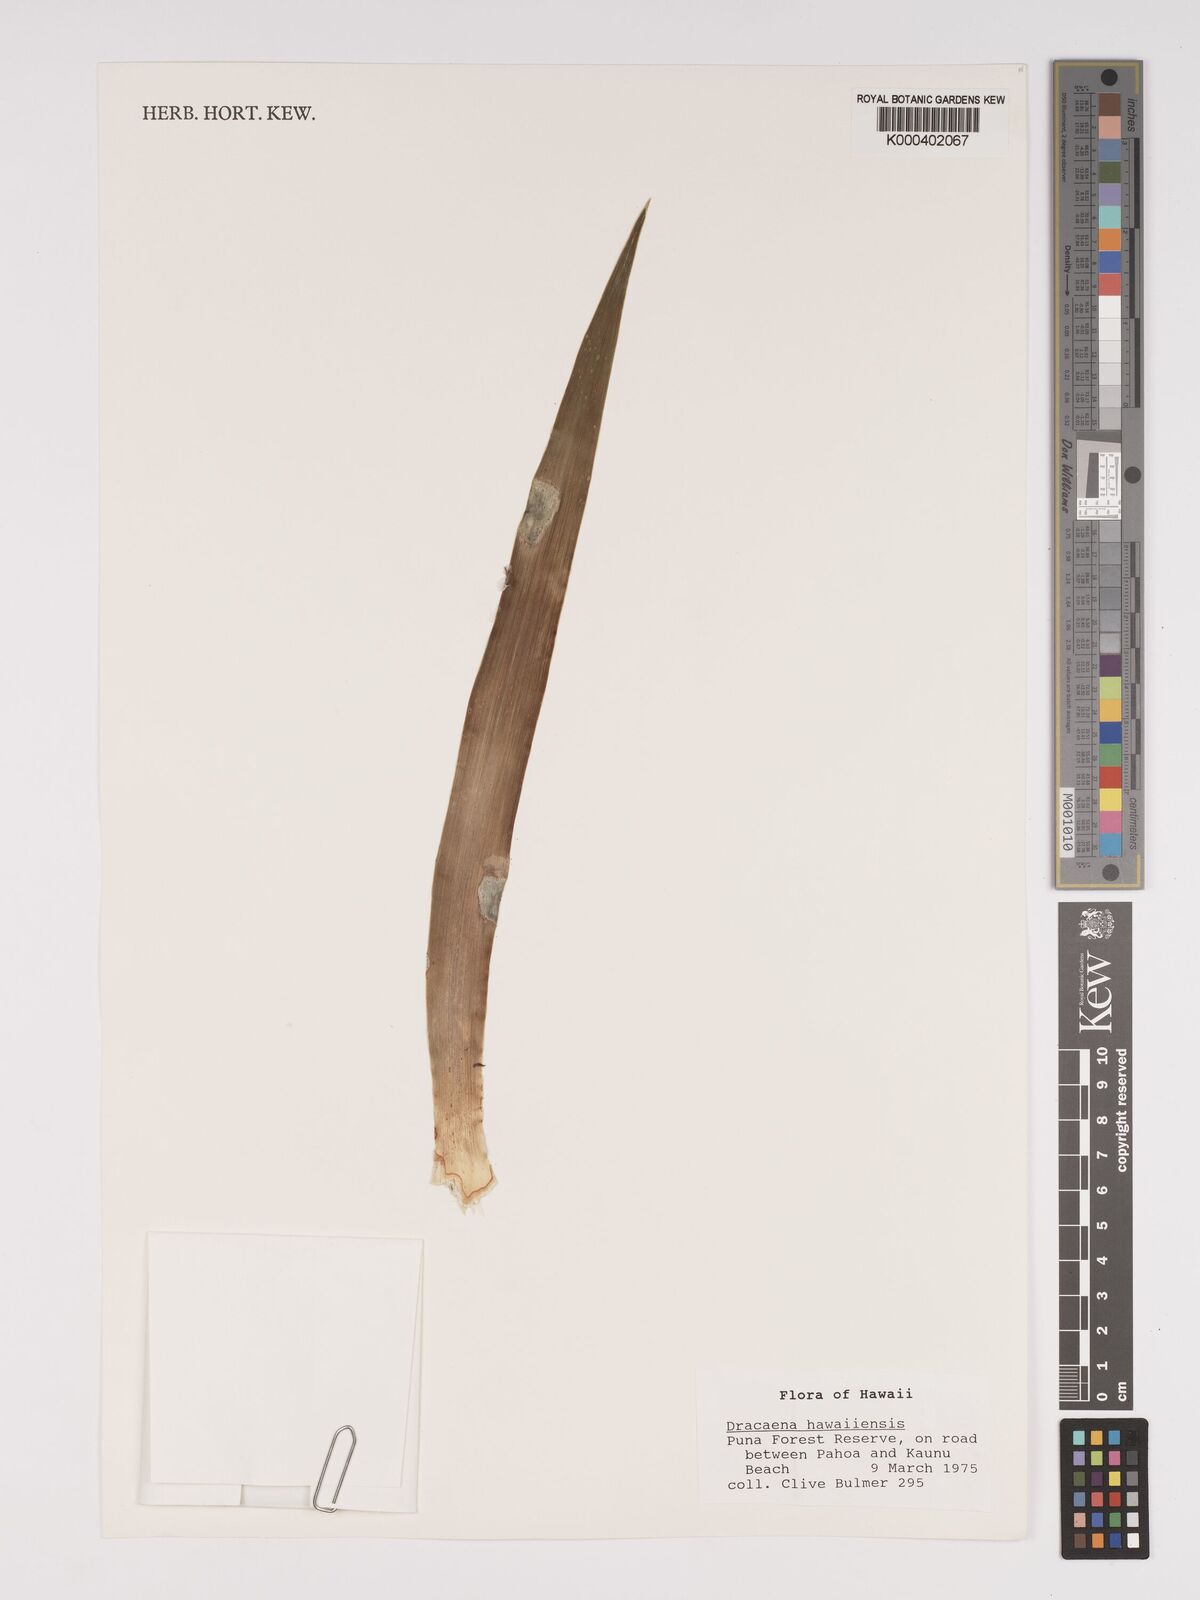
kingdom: Plantae
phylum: Tracheophyta
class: Liliopsida
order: Asparagales
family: Asparagaceae
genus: Dracaena
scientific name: Dracaena fernaldii
